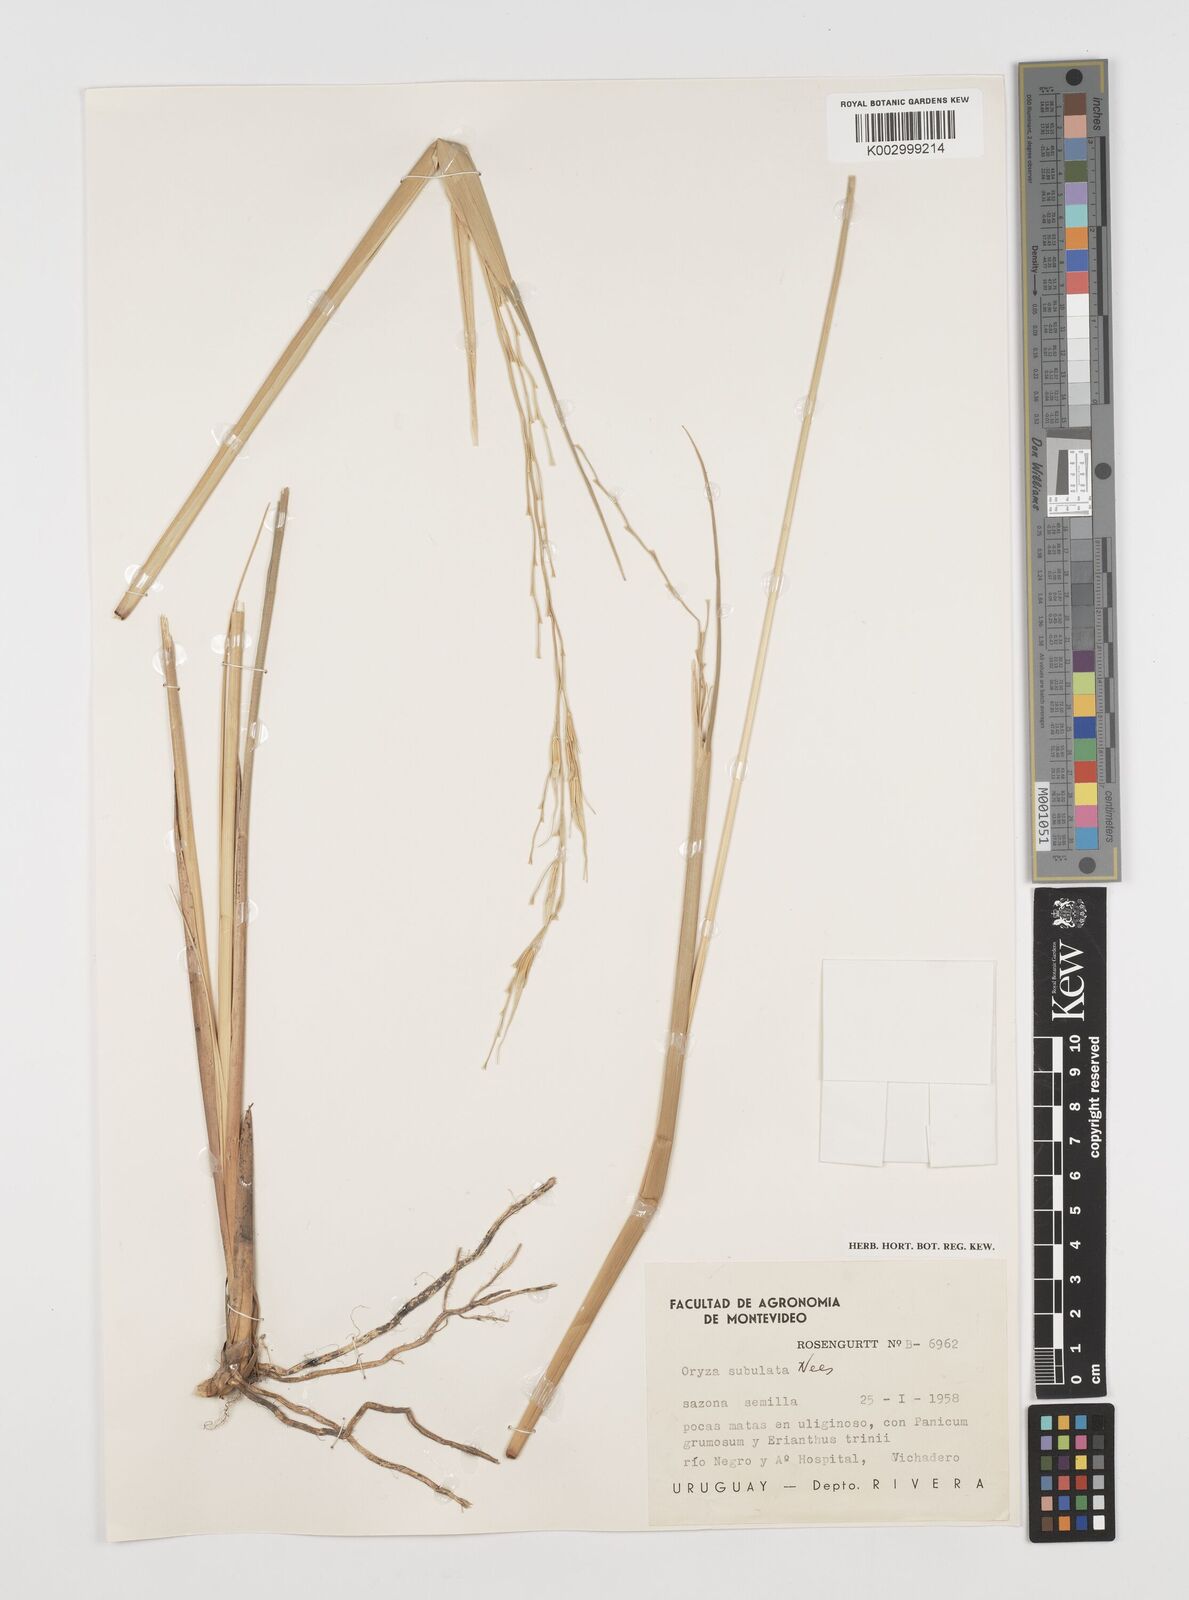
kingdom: Plantae
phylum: Tracheophyta
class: Liliopsida
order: Poales
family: Poaceae
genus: Rhynchoryza
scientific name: Rhynchoryza subulata
